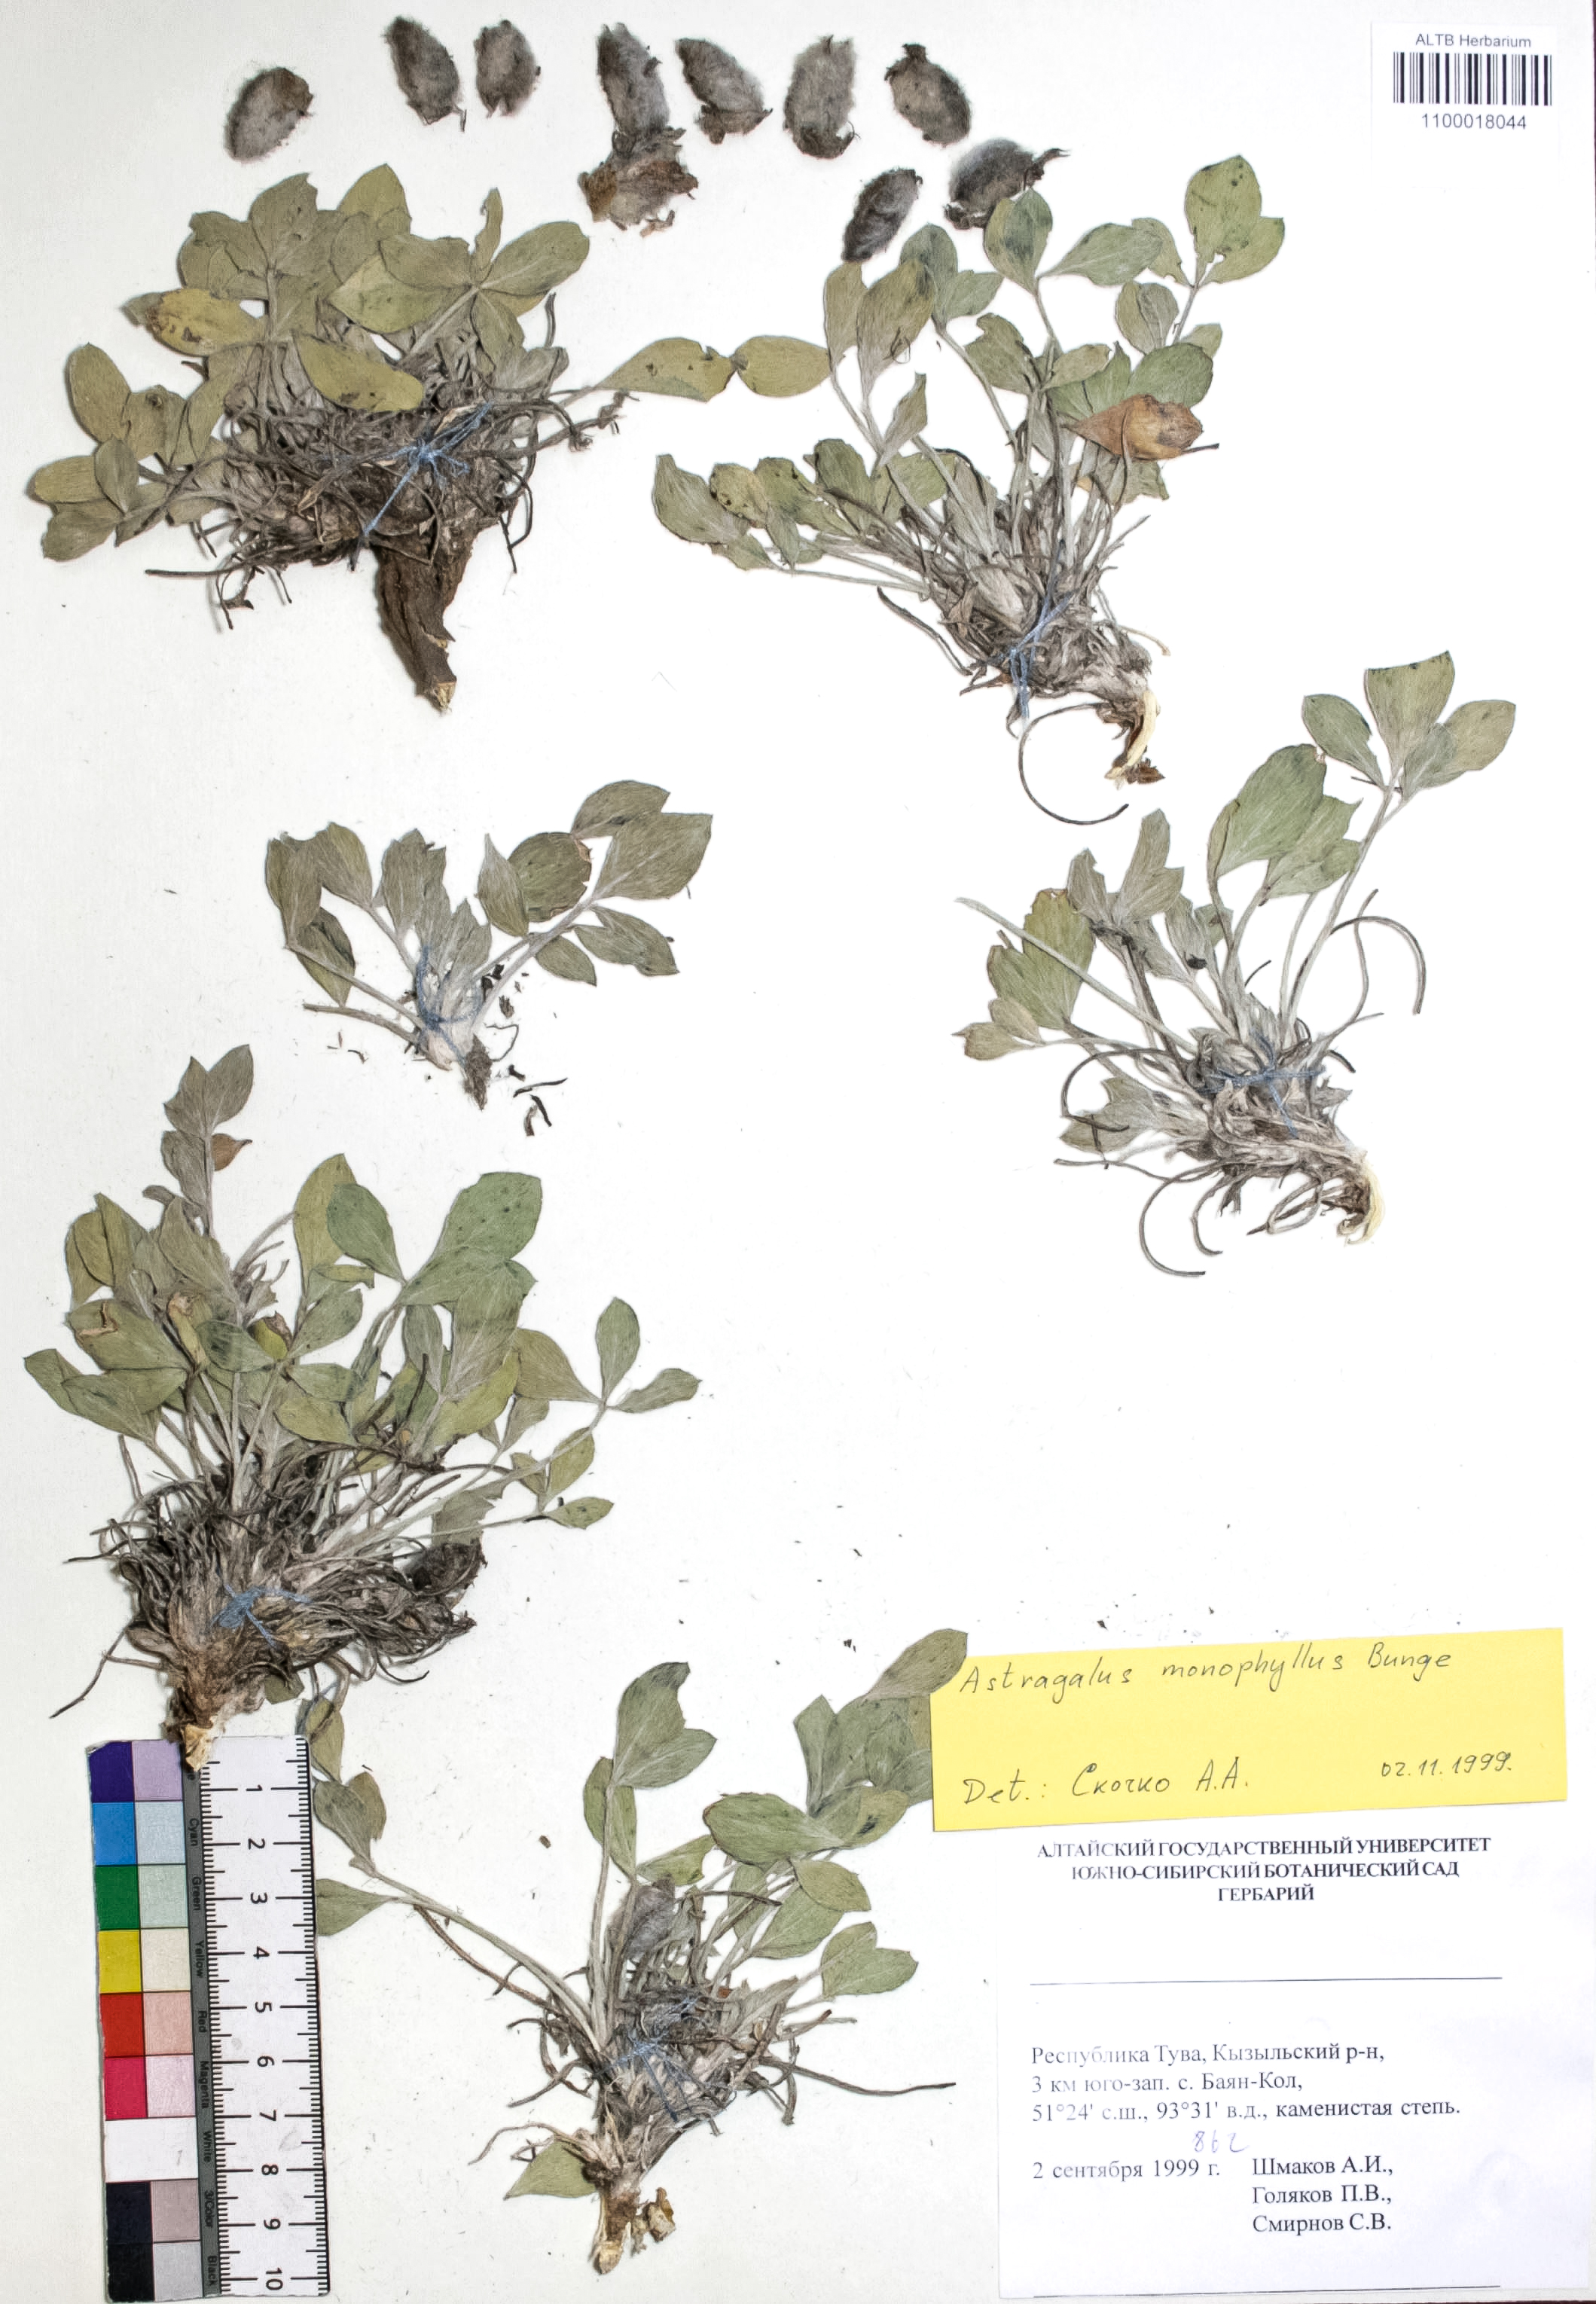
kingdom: Plantae
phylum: Tracheophyta
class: Magnoliopsida
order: Fabales
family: Fabaceae
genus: Astragalus
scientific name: Astragalus monophyllus
